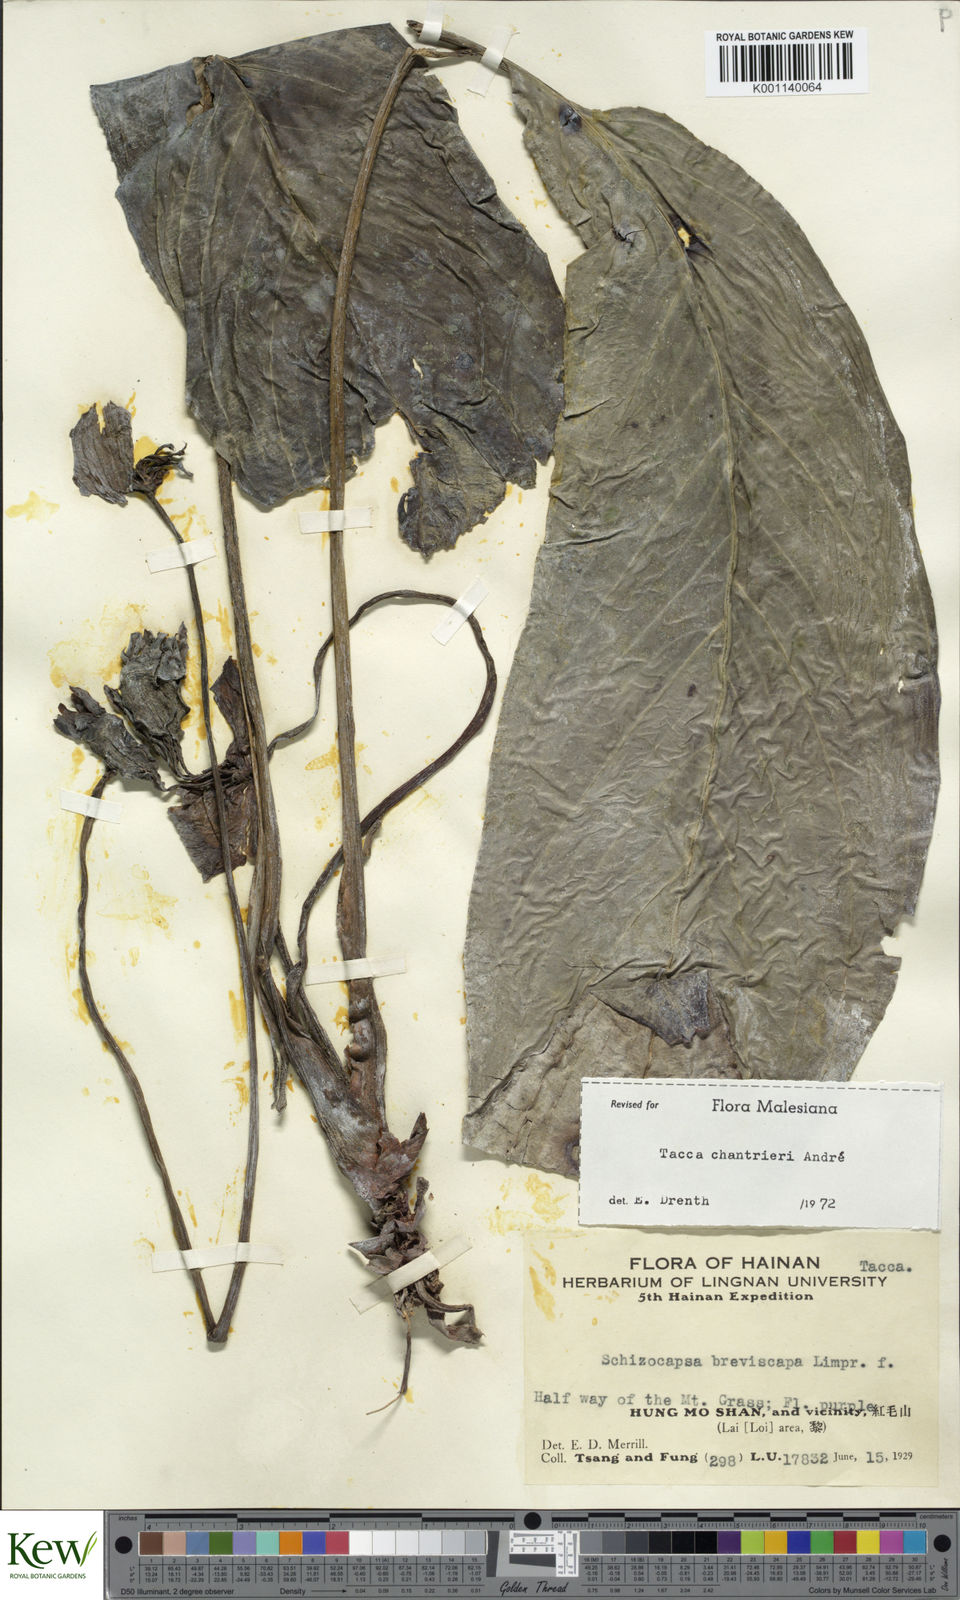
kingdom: Plantae
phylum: Tracheophyta
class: Liliopsida
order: Dioscoreales
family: Dioscoreaceae
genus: Tacca
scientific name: Tacca
